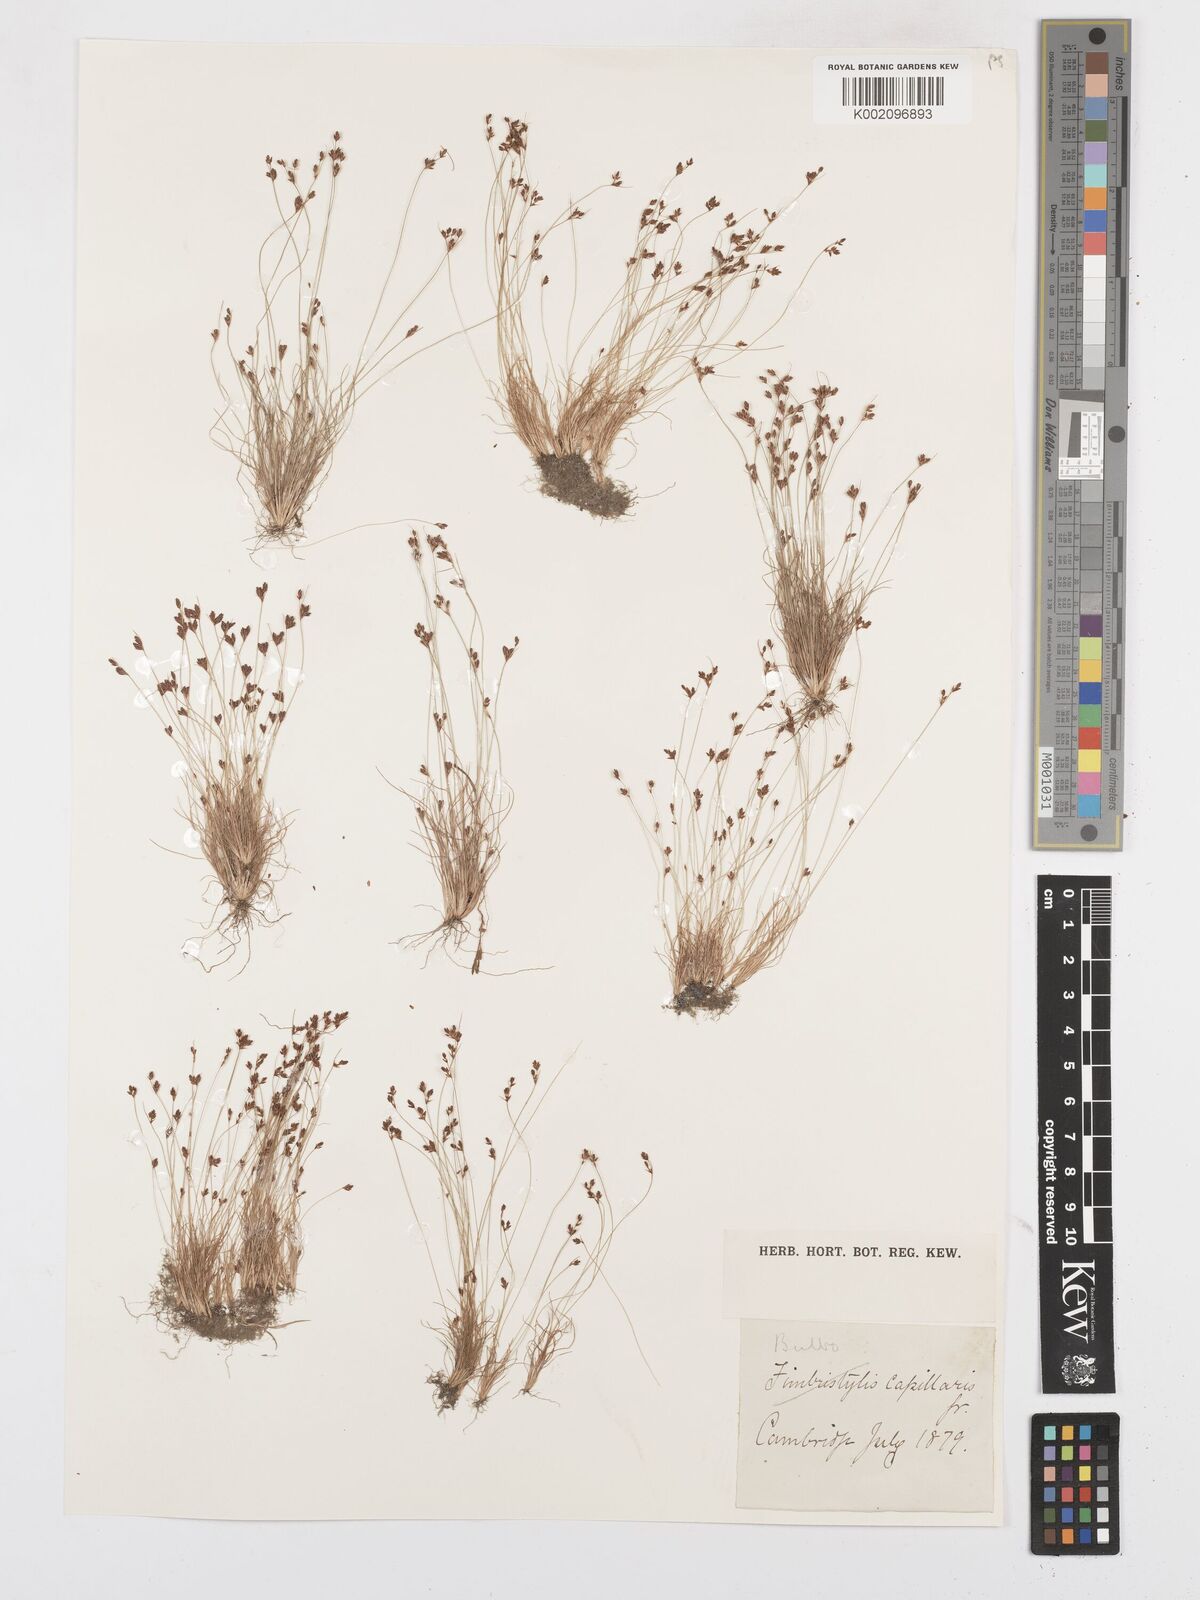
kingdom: Plantae
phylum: Tracheophyta
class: Liliopsida
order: Poales
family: Cyperaceae
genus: Bulbostylis
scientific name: Bulbostylis capillaris
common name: Densetuft hairsedge
